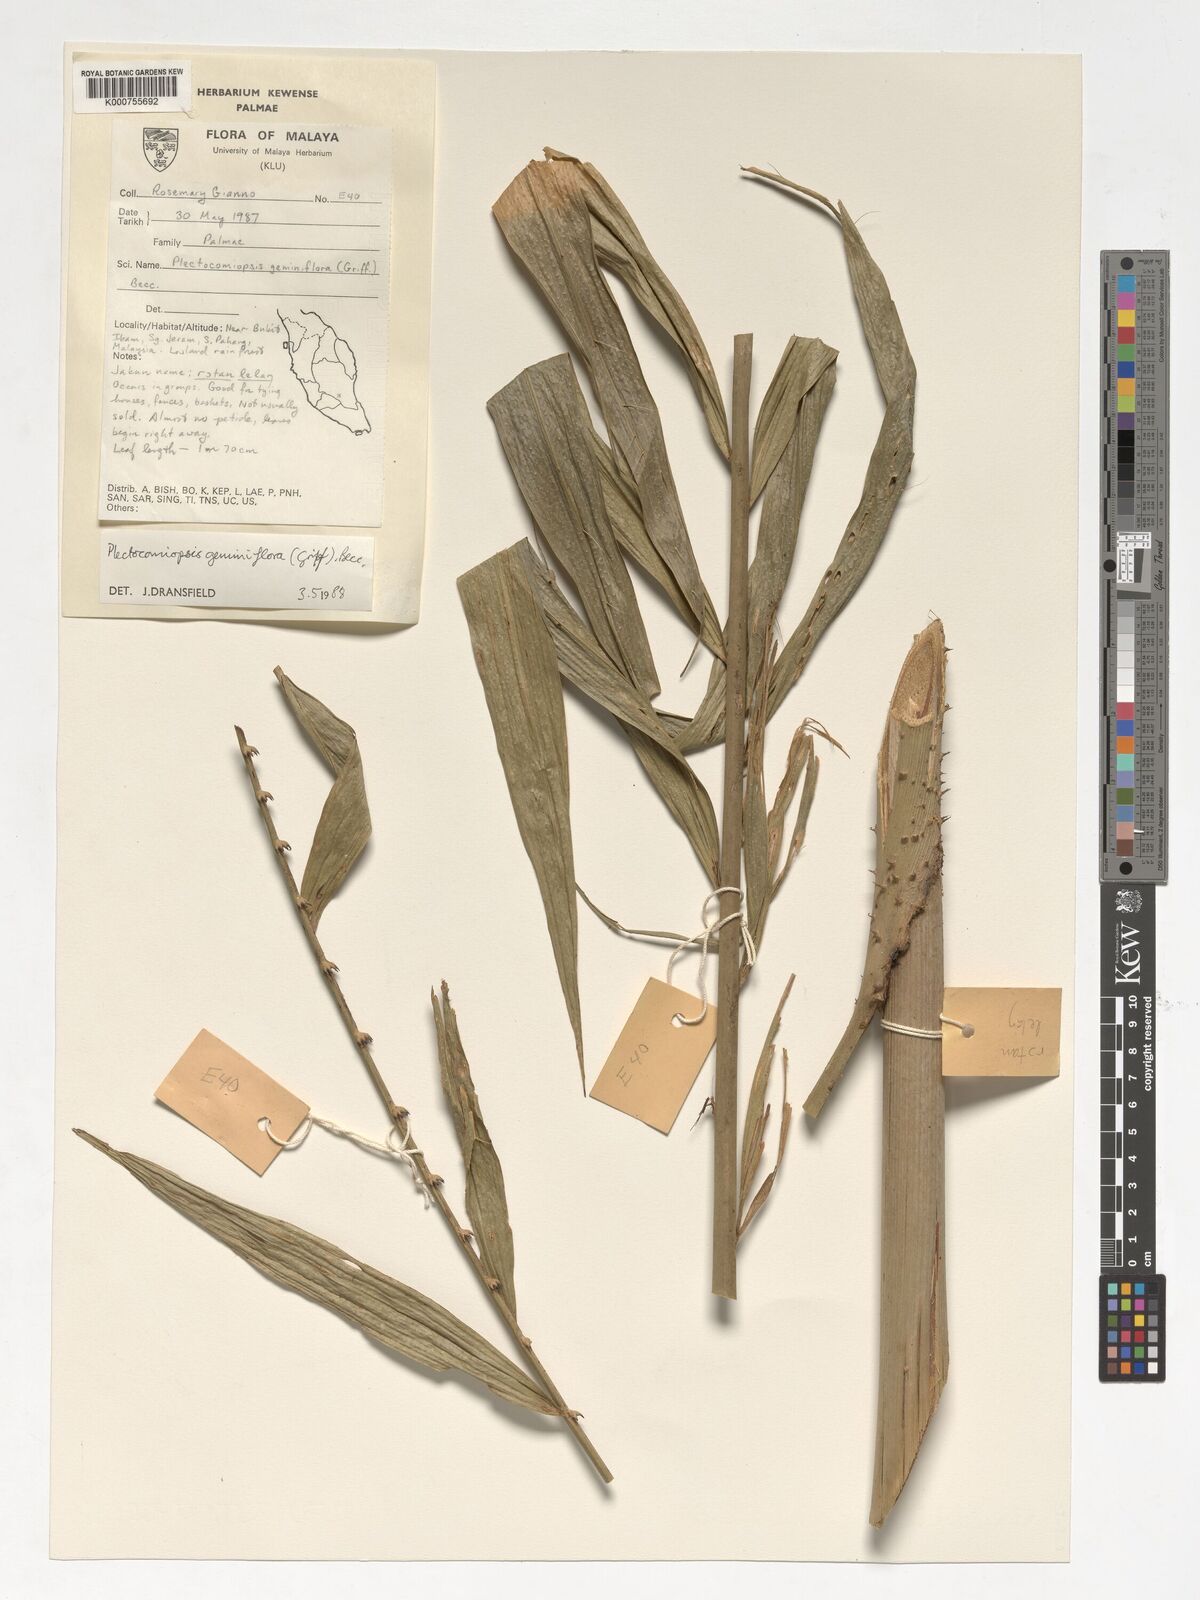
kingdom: Plantae
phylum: Tracheophyta
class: Liliopsida
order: Arecales
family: Arecaceae
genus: Plectocomiopsis
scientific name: Plectocomiopsis geminiflora
